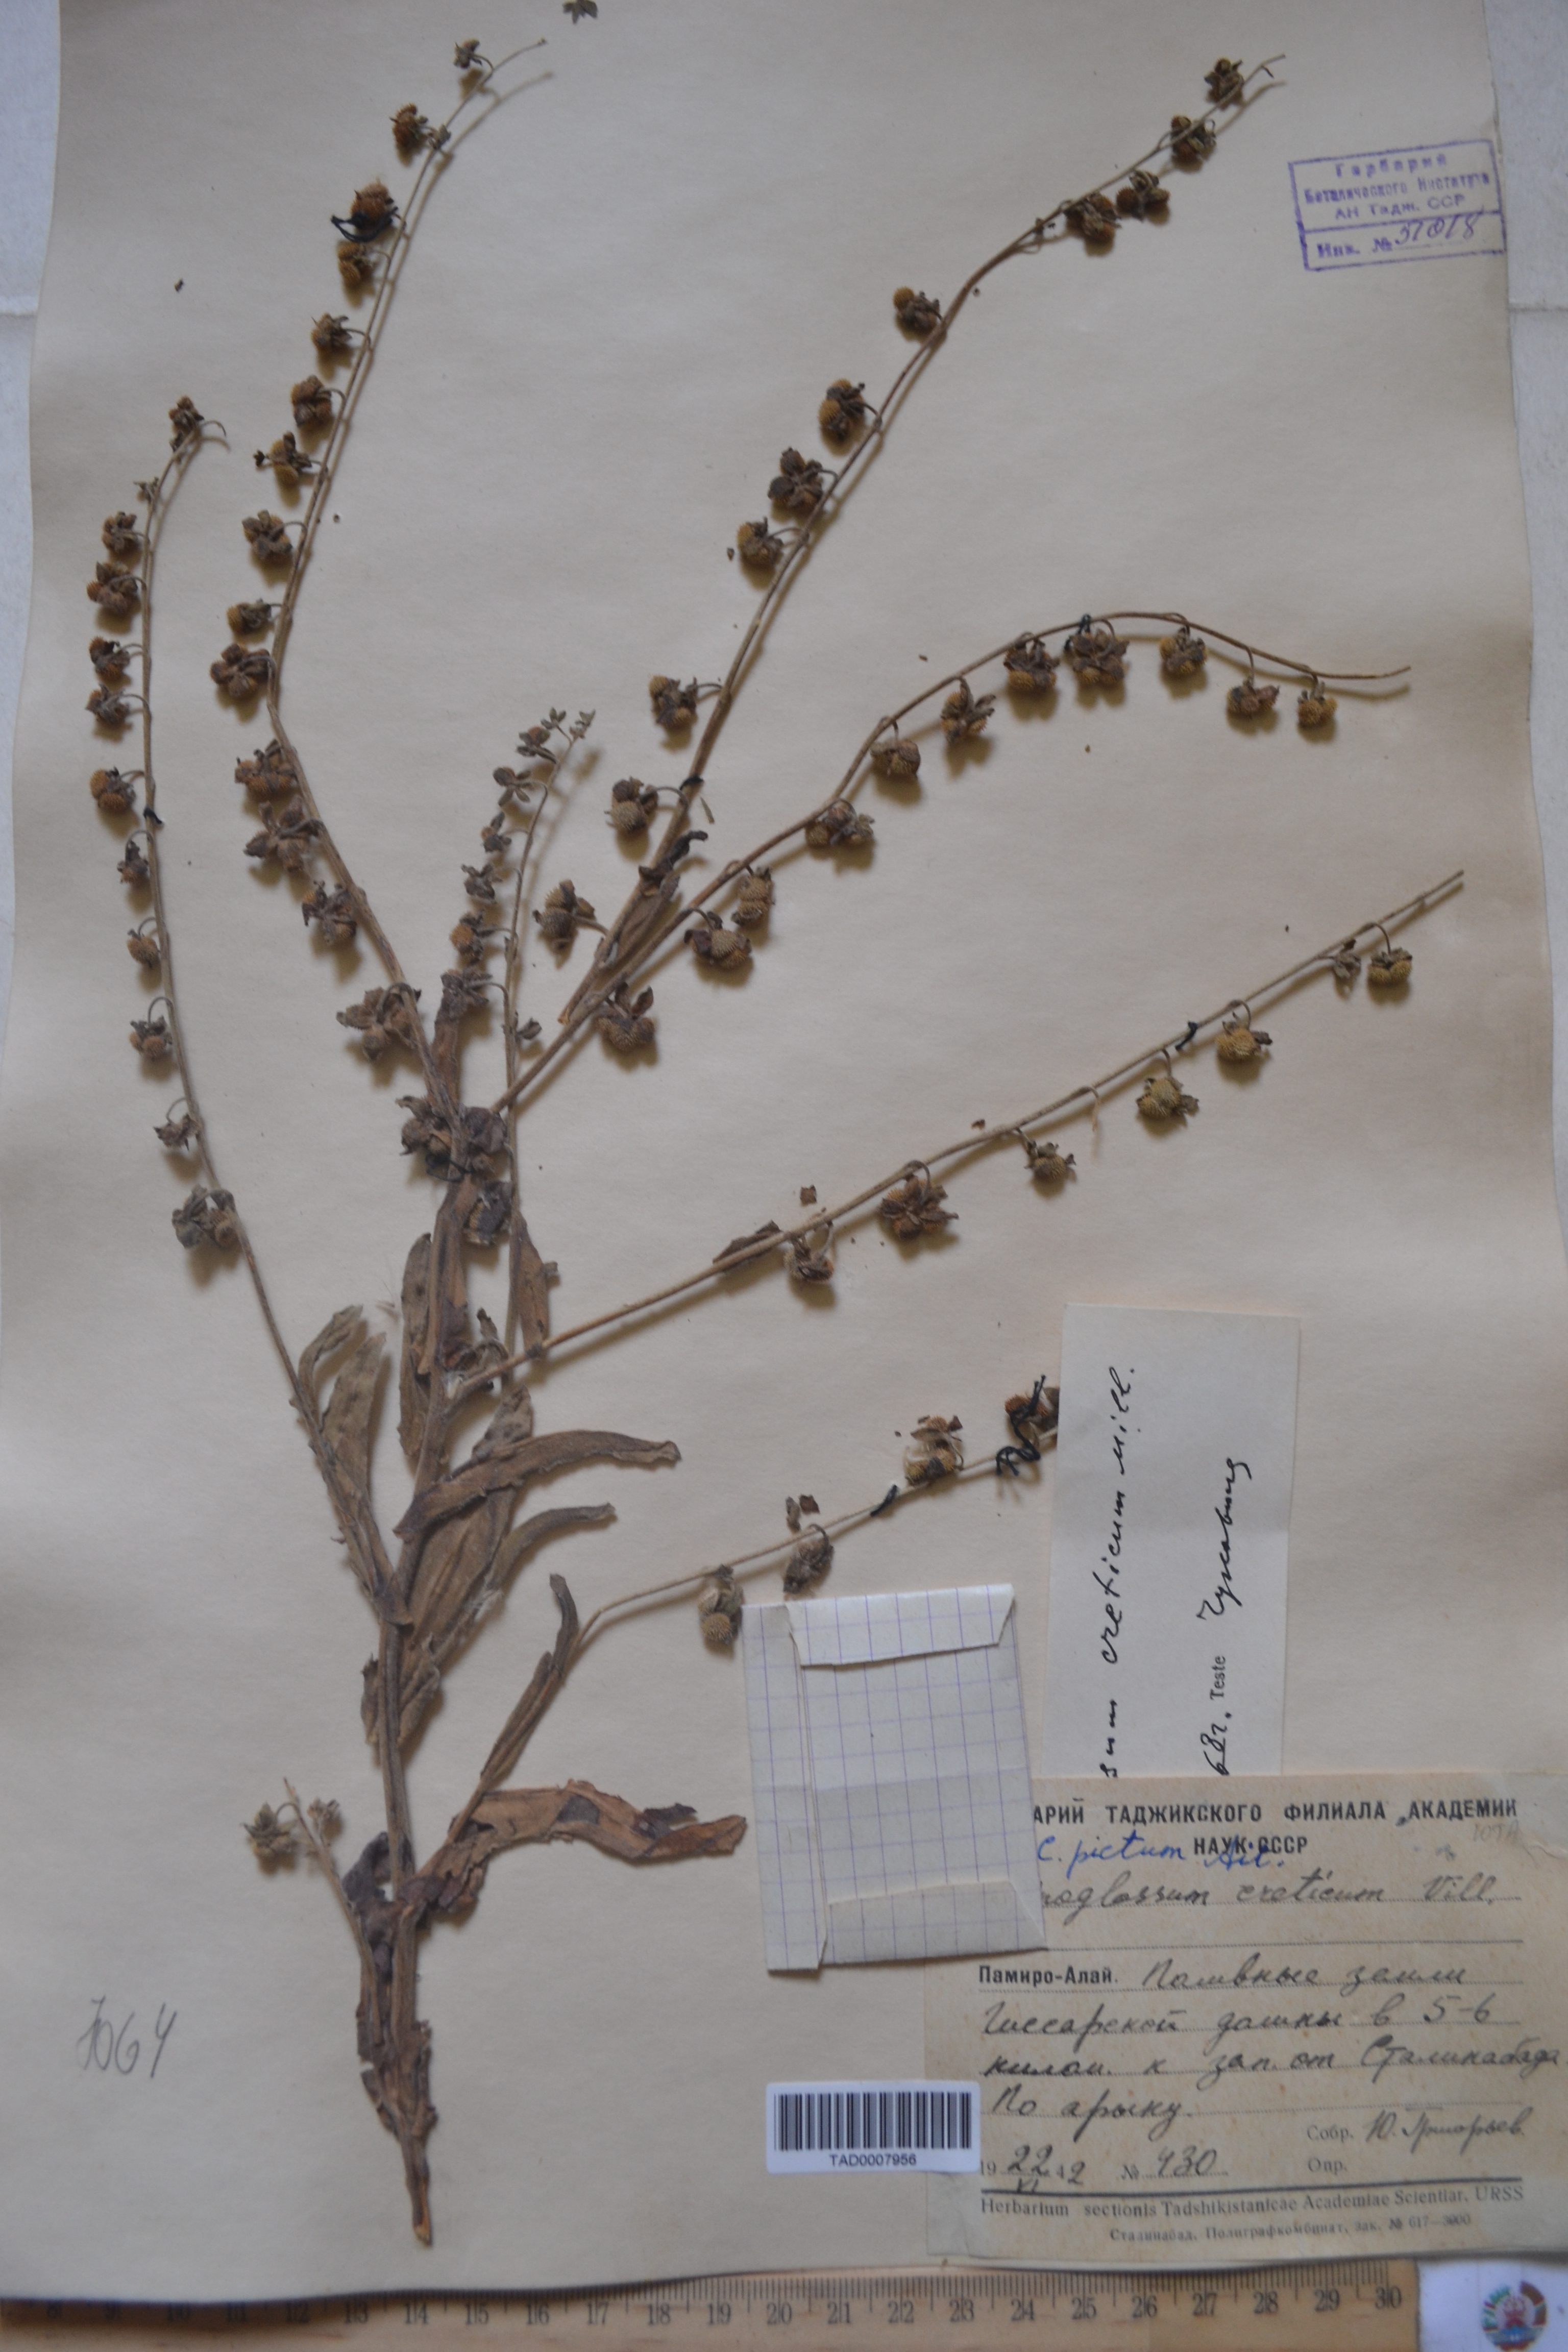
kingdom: Plantae
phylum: Tracheophyta
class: Magnoliopsida
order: Boraginales
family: Boraginaceae
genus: Cynoglossum
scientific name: Cynoglossum creticum
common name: Blue hound's tongue
